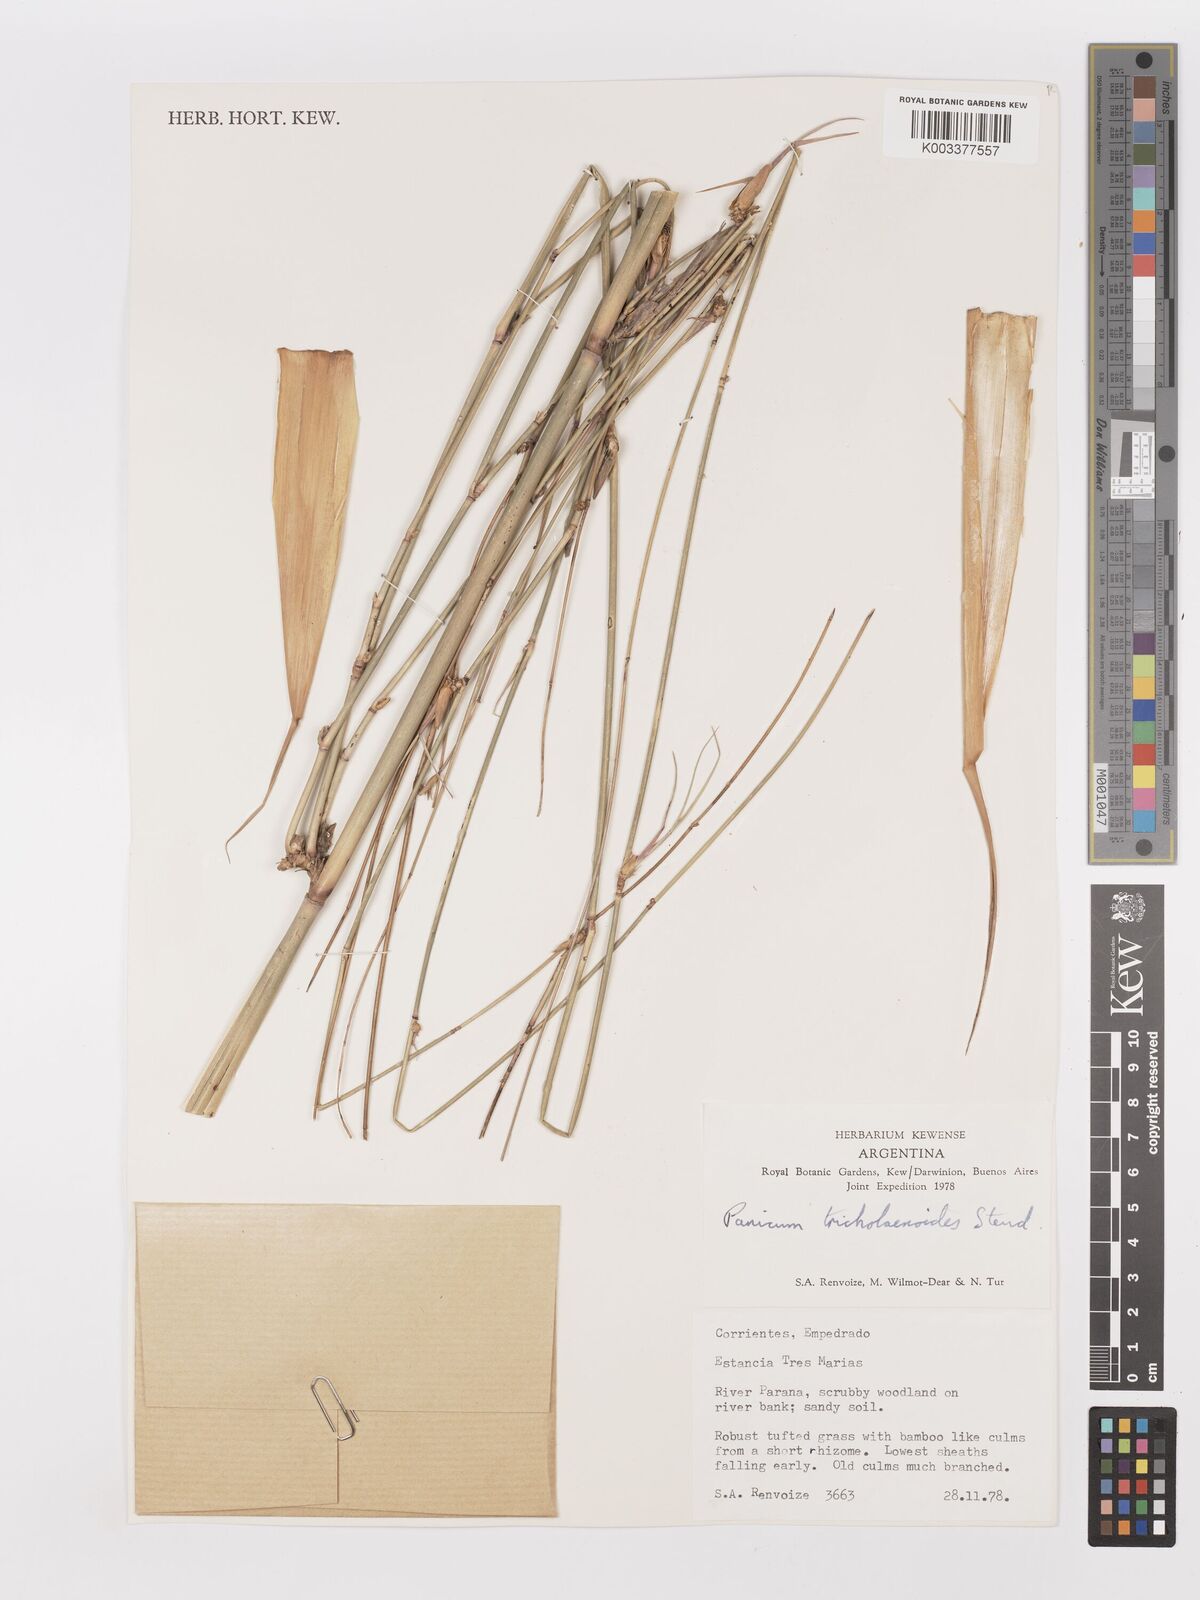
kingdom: Plantae
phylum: Tracheophyta
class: Liliopsida
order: Poales
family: Poaceae
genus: Panicum
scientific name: Panicum tricholaenoides
